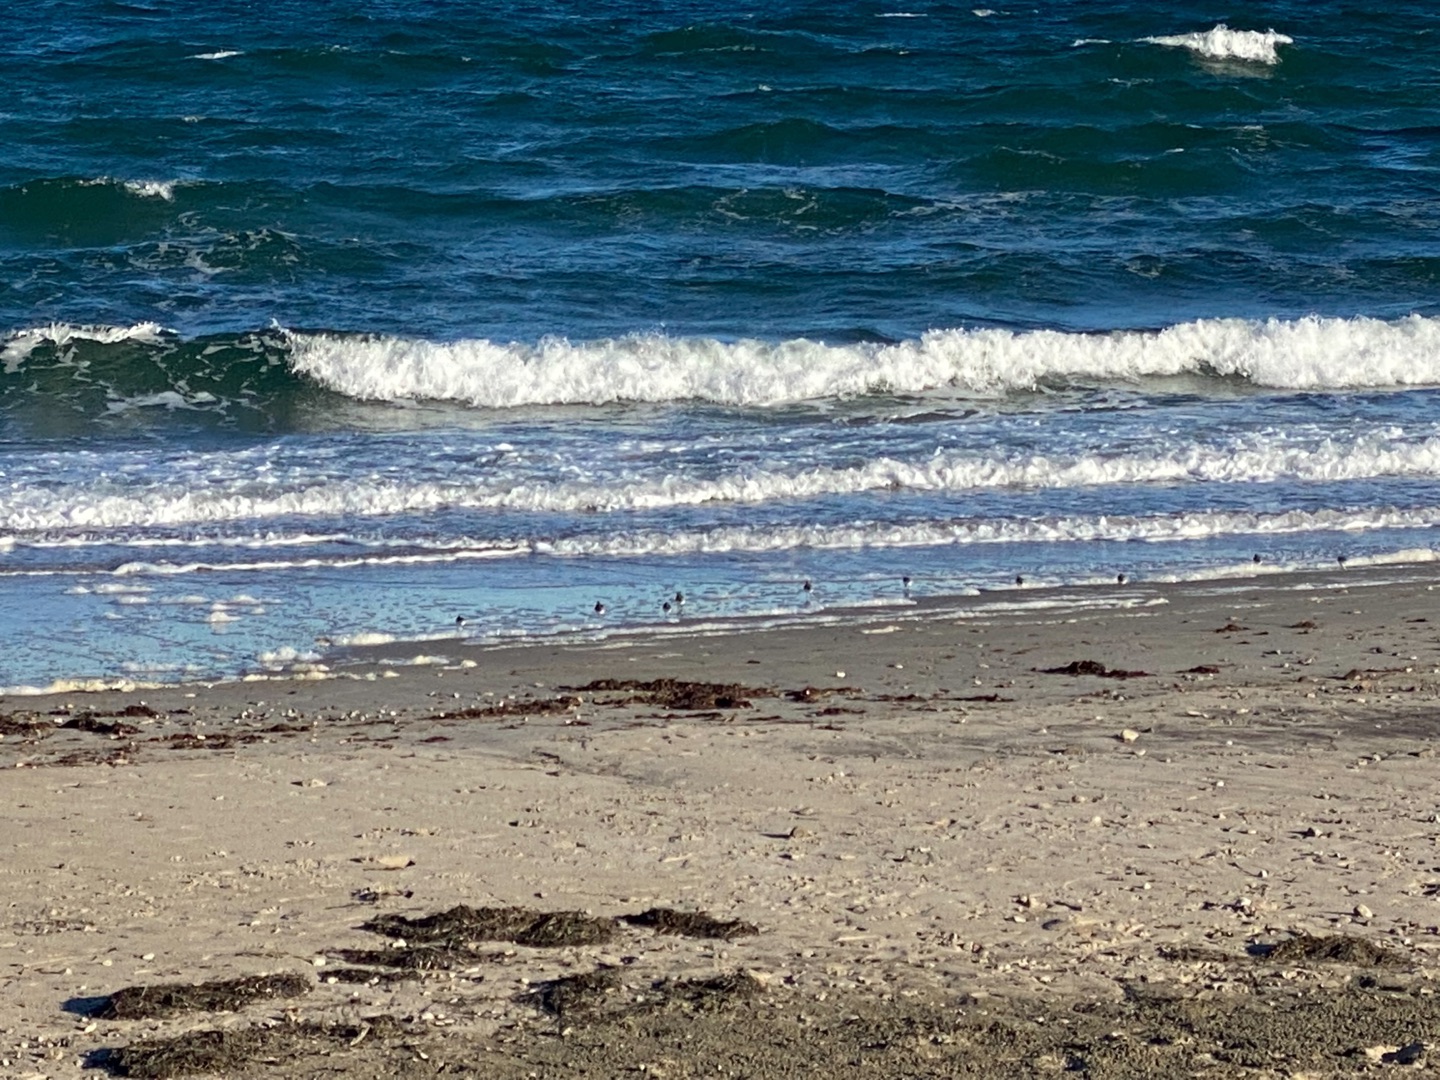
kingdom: Animalia
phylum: Chordata
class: Aves
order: Charadriiformes
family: Scolopacidae
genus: Calidris
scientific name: Calidris alba
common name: Sandløber
